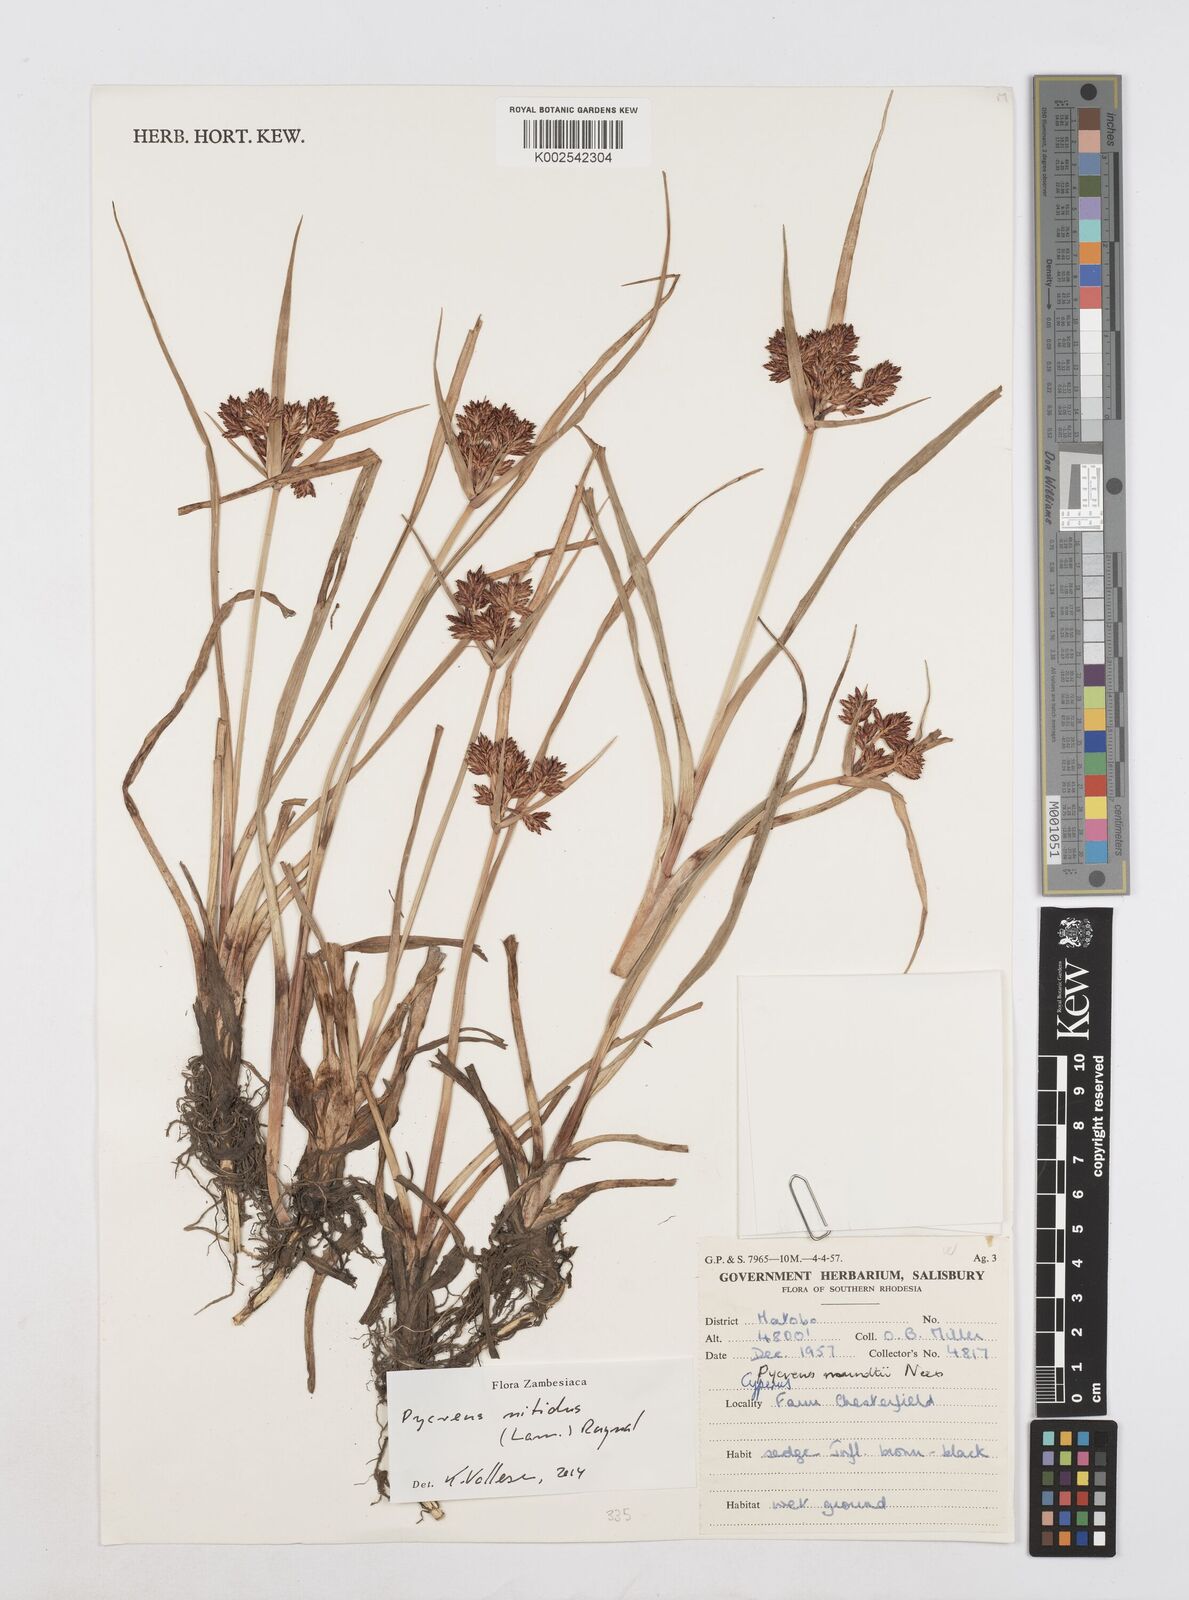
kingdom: Plantae
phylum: Tracheophyta
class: Liliopsida
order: Poales
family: Cyperaceae
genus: Cyperus
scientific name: Cyperus nitidus
